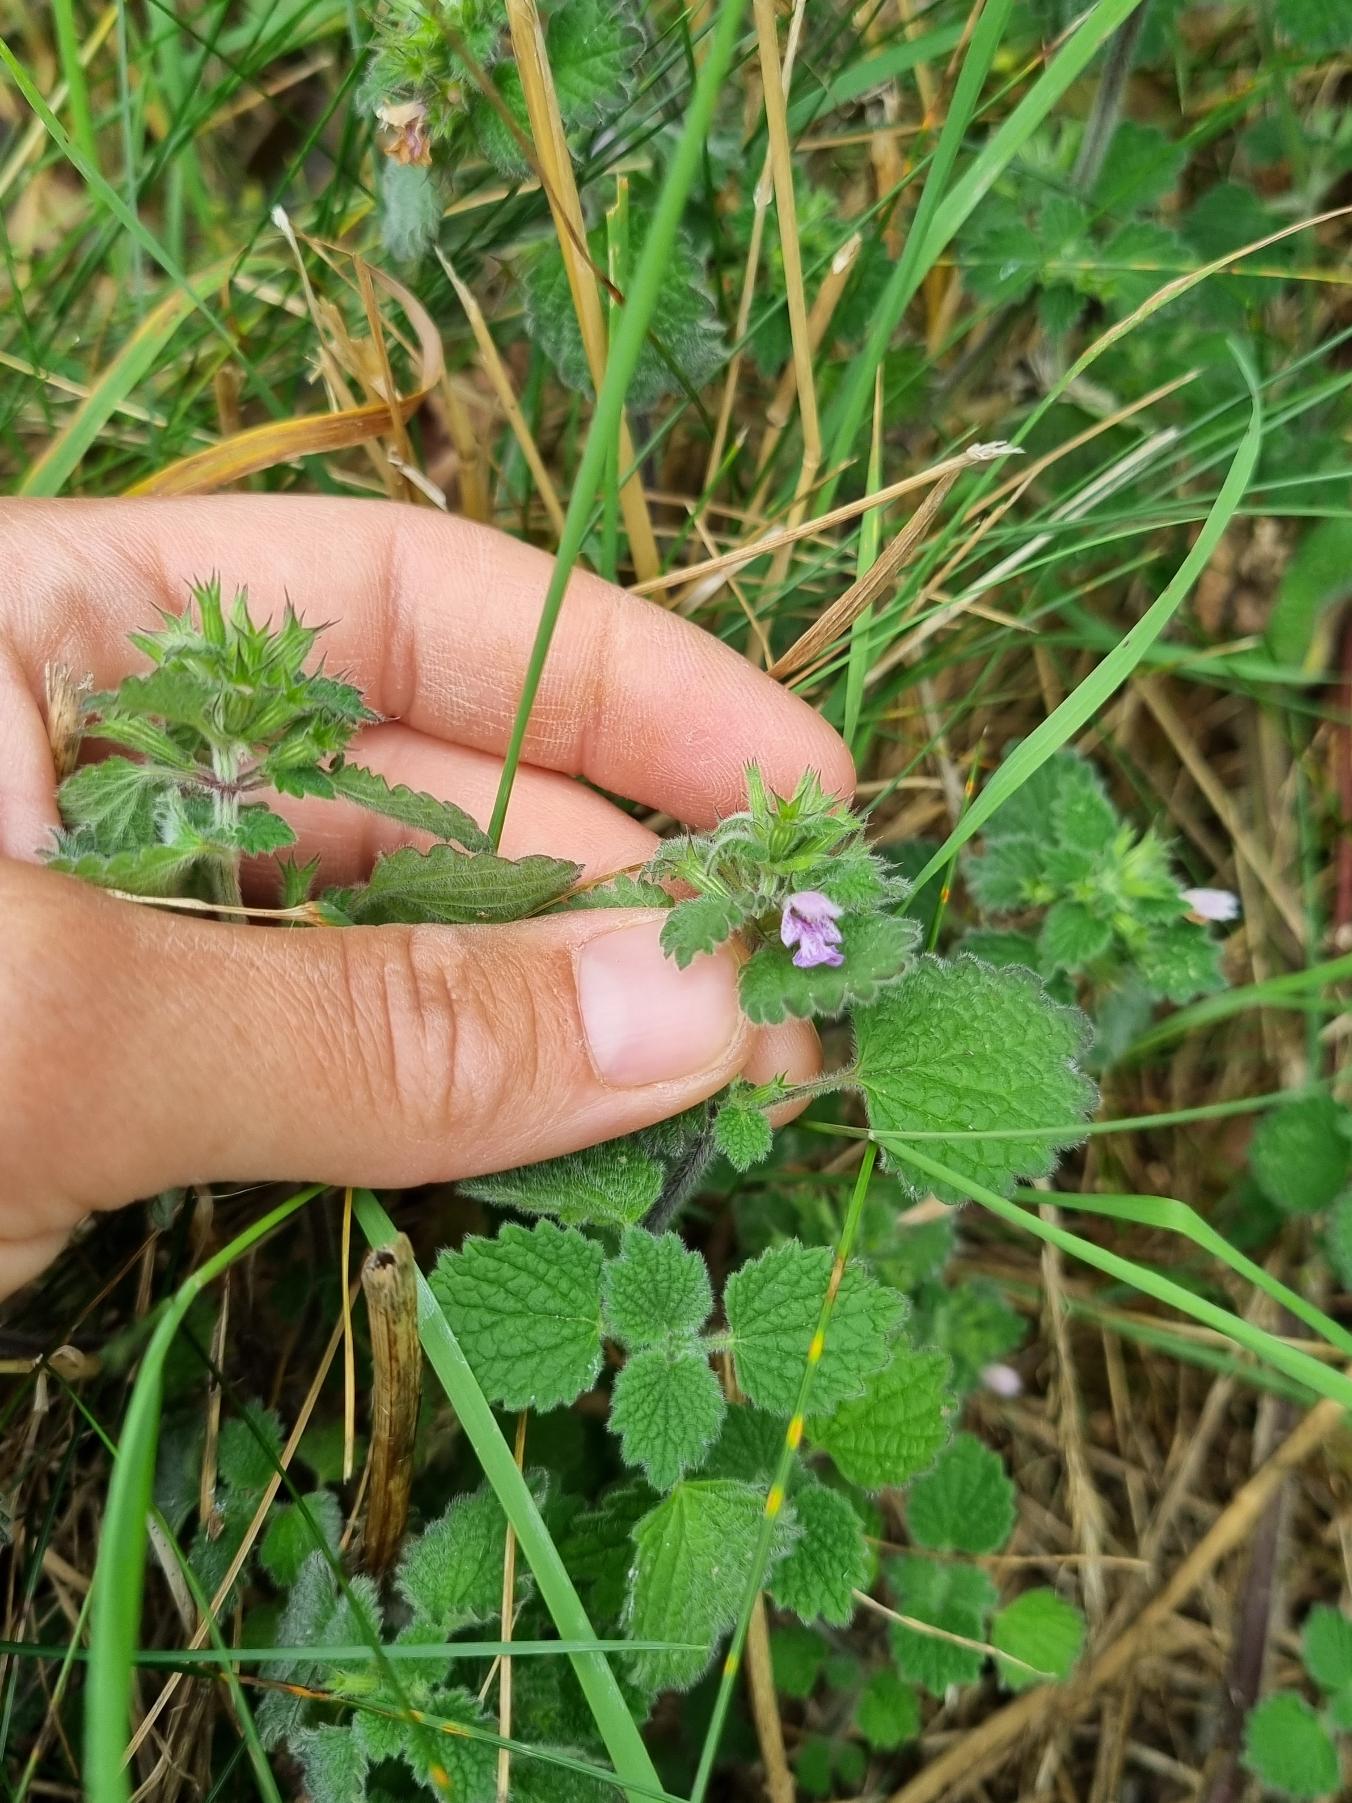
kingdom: Plantae
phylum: Tracheophyta
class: Magnoliopsida
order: Lamiales
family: Lamiaceae
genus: Ballota
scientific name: Ballota nigra
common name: Tandbæger
